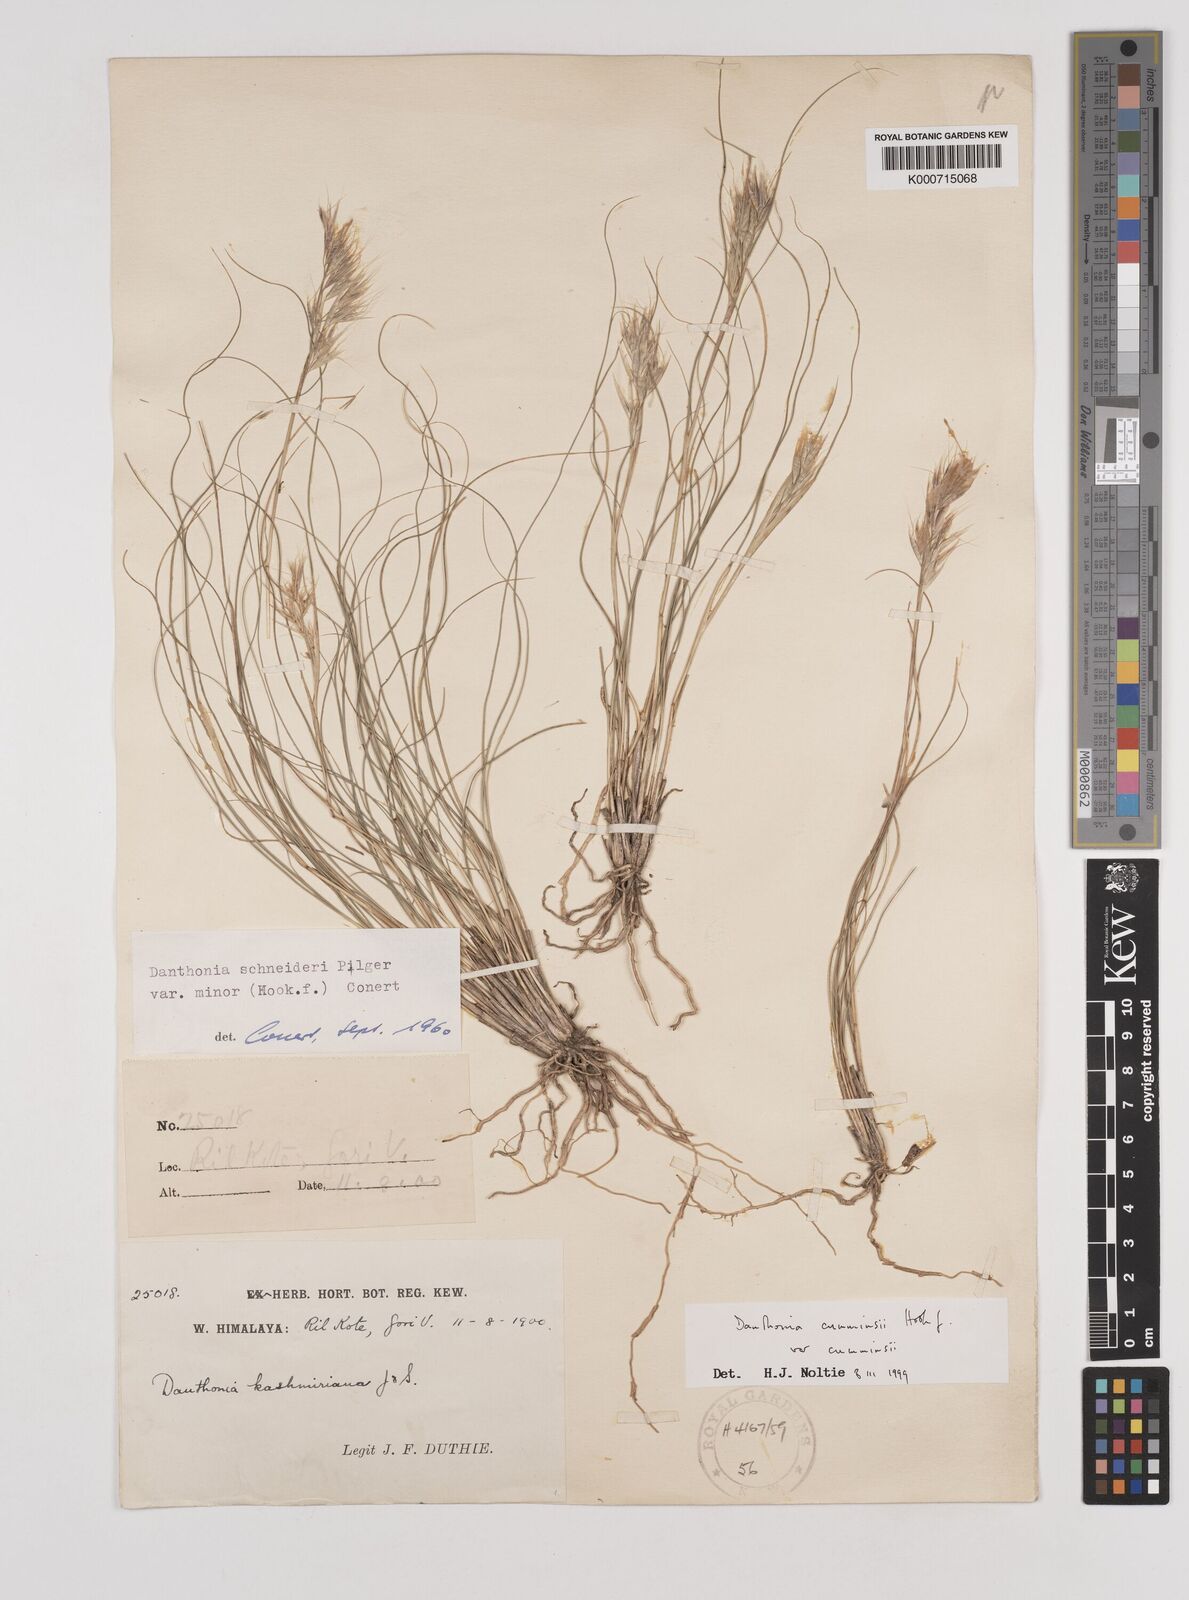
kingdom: Plantae
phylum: Tracheophyta
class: Liliopsida
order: Poales
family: Poaceae
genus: Rytidosperma
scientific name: Rytidosperma
